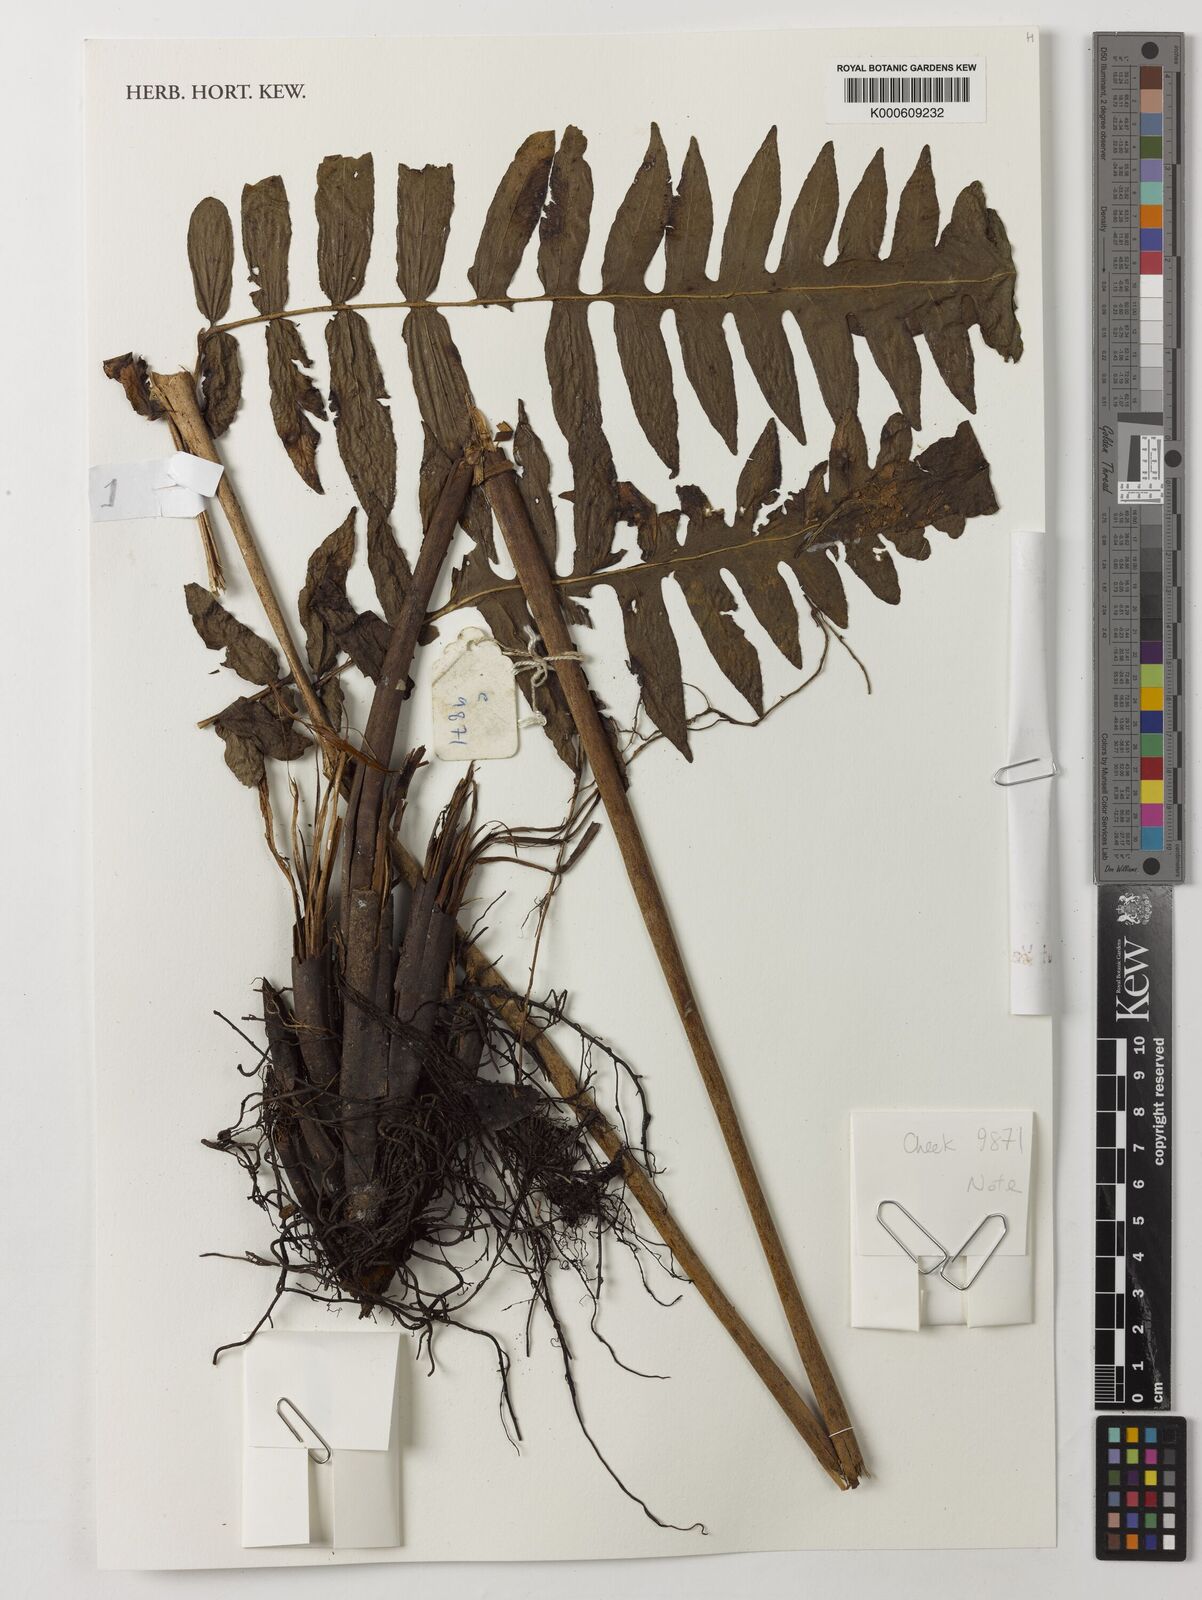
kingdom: Plantae
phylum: Tracheophyta
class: Polypodiopsida
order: Polypodiales
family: Dennstaedtiaceae
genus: Blotiella
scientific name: Blotiella currorii
